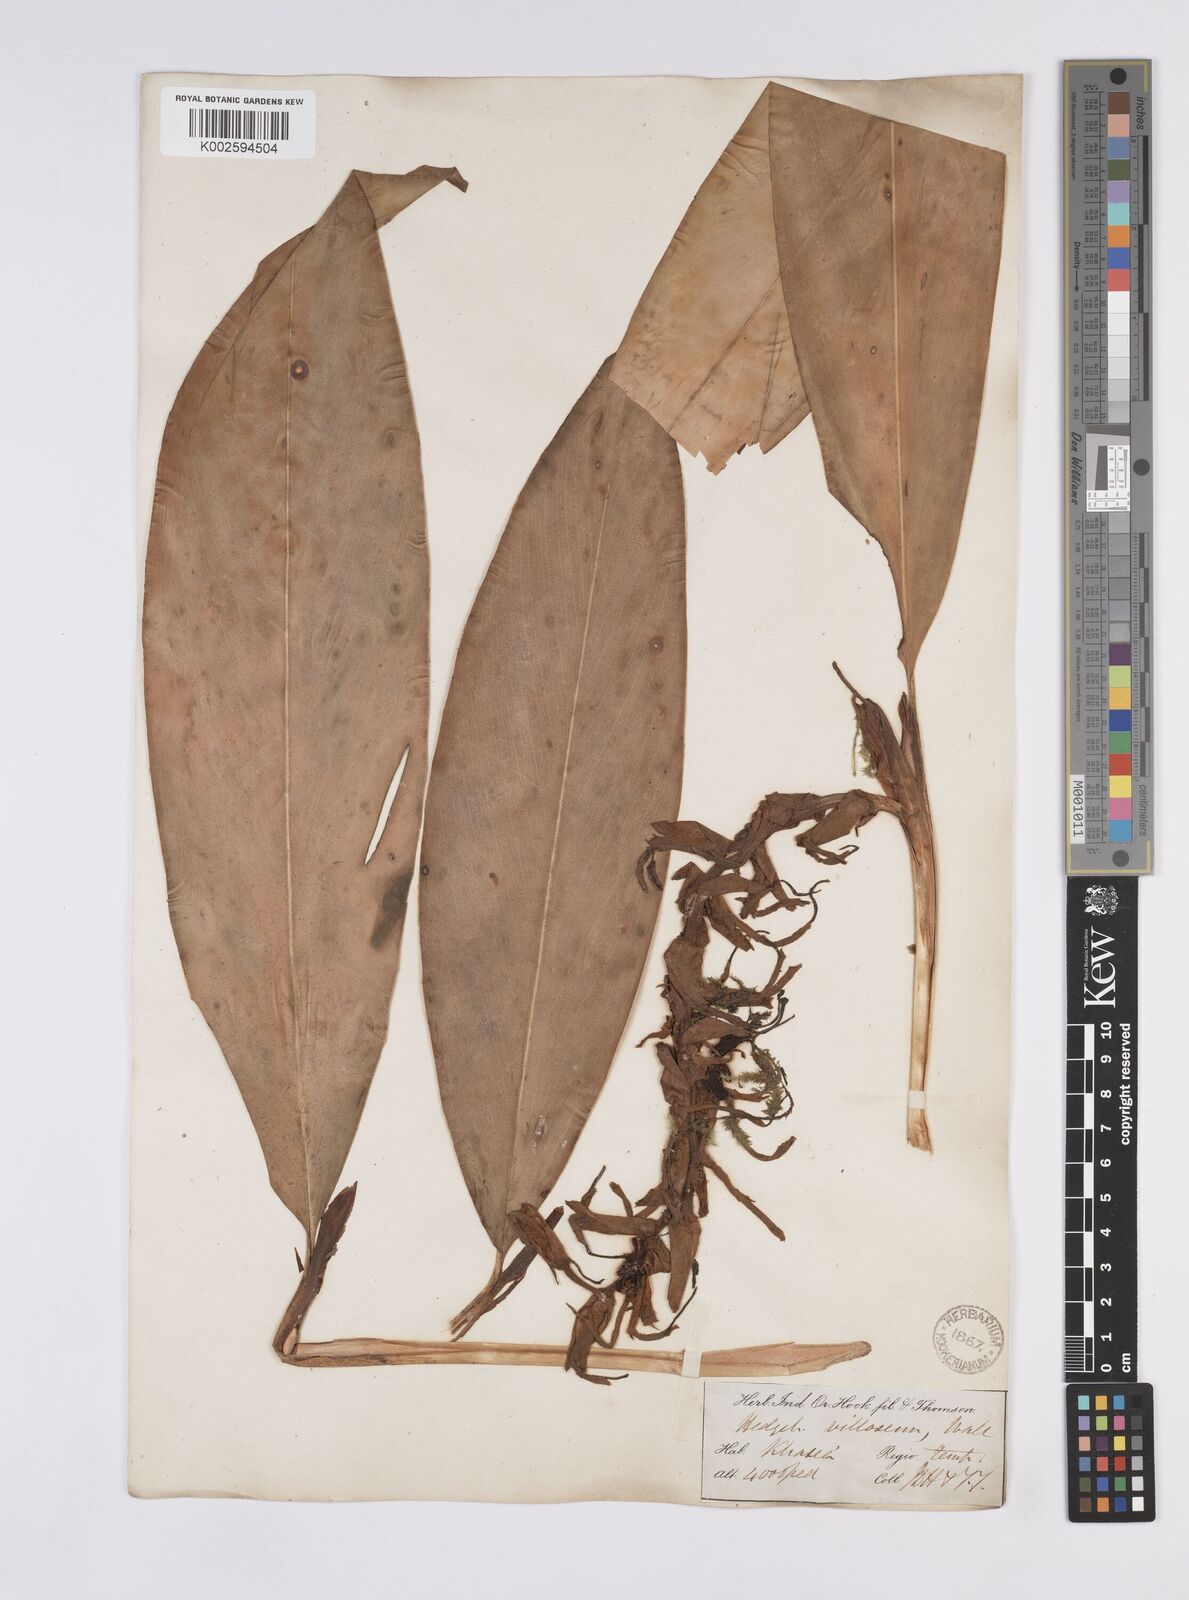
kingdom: Plantae
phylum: Tracheophyta
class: Liliopsida
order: Zingiberales
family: Zingiberaceae
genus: Hedychium
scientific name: Hedychium villosum
